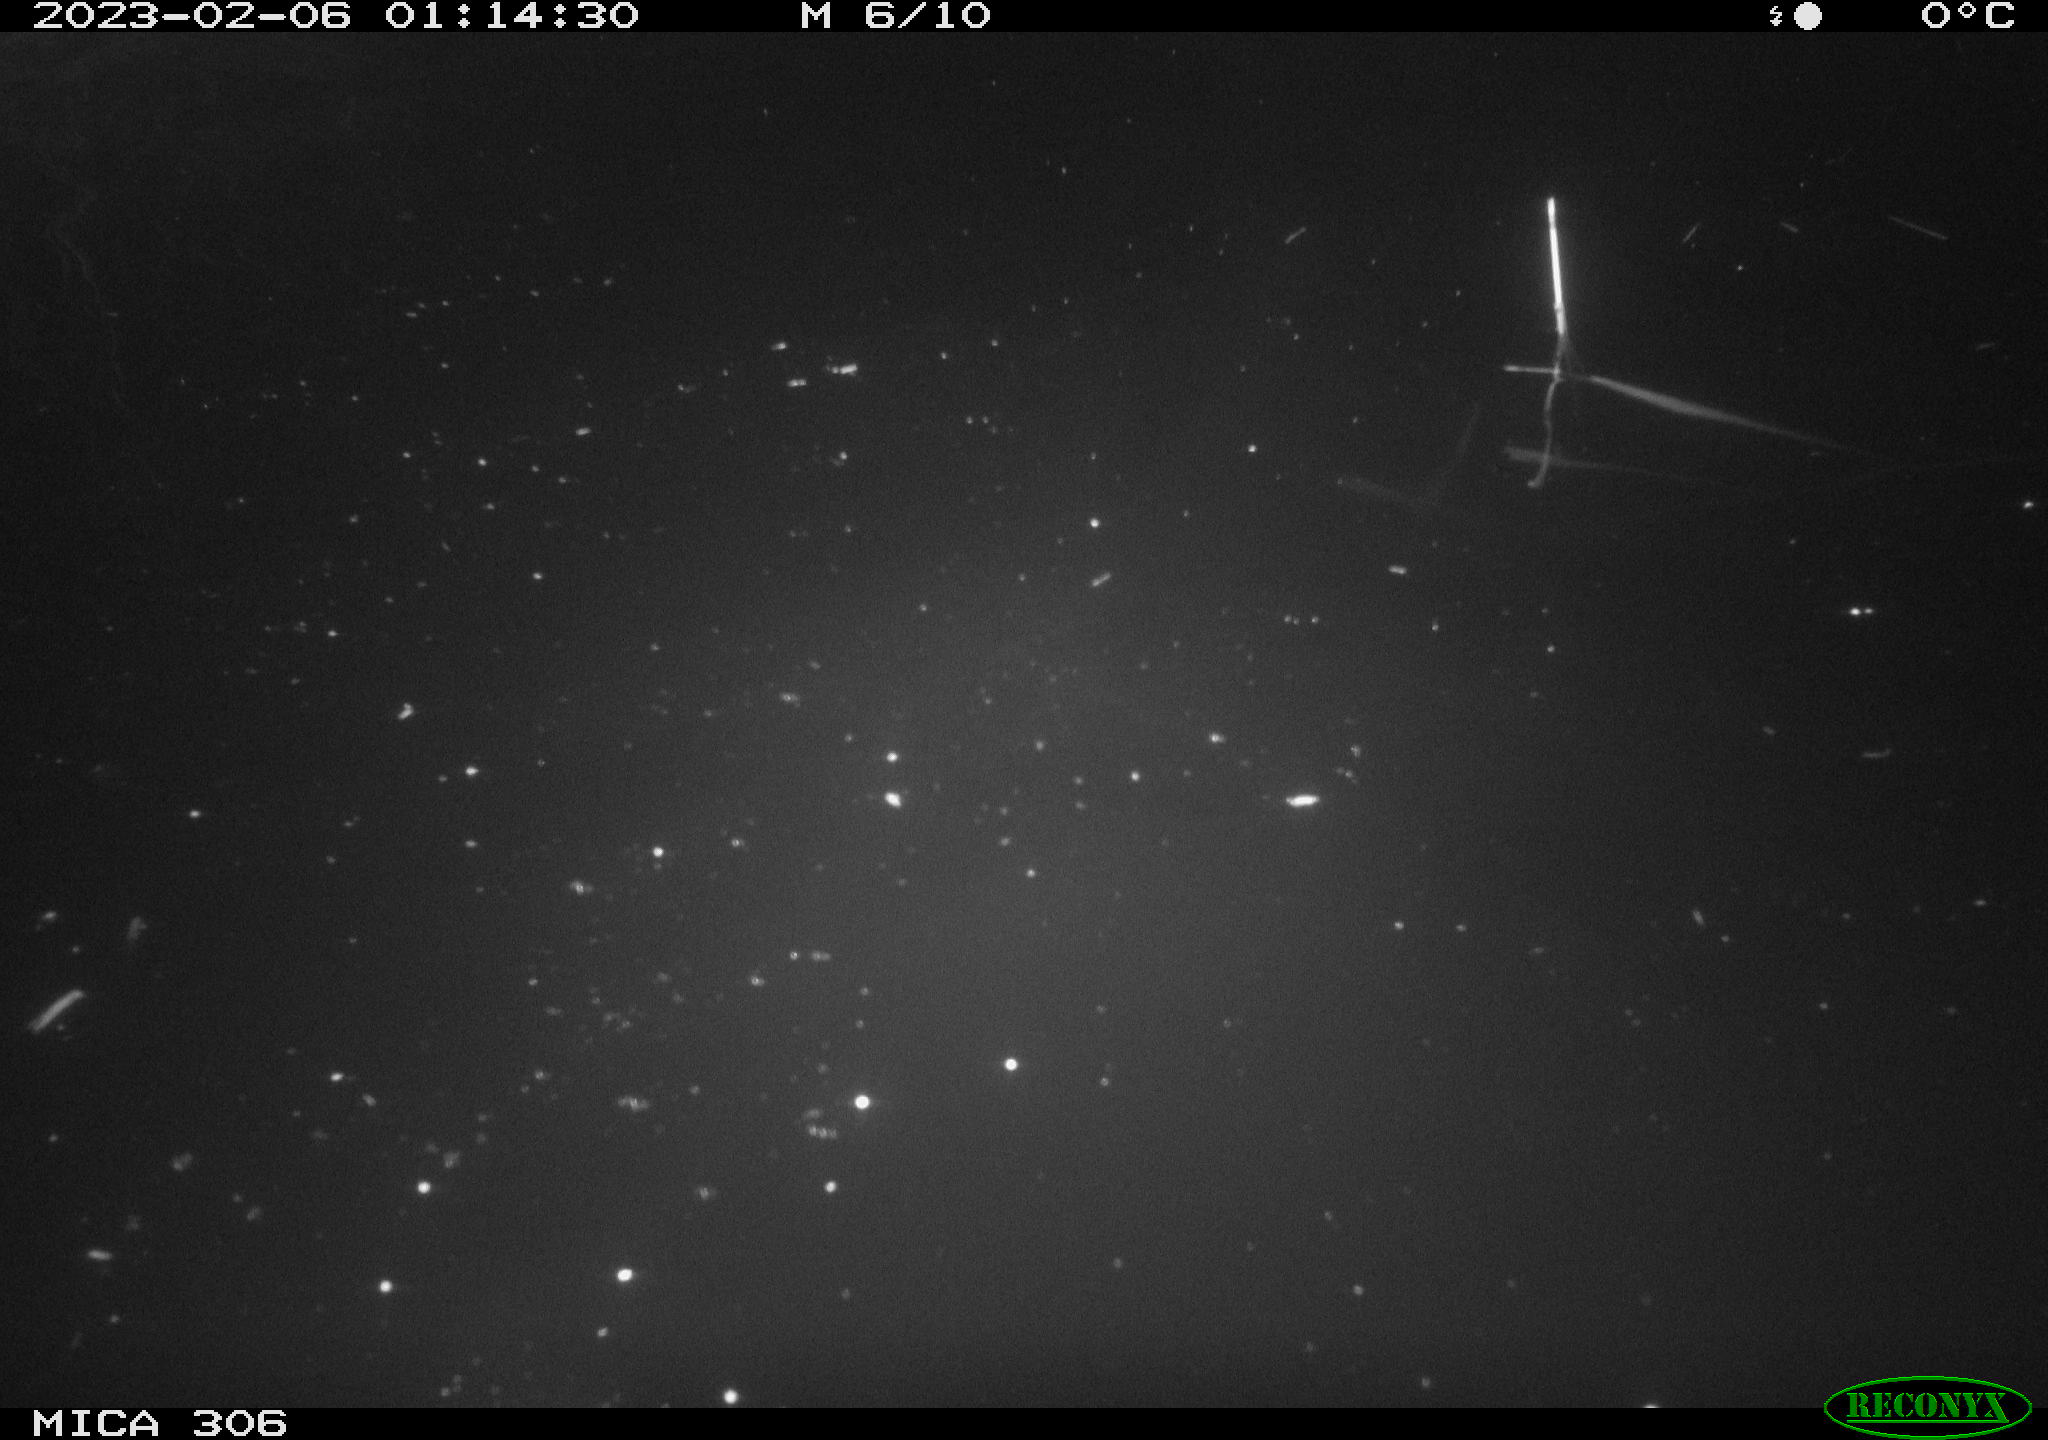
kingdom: Animalia
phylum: Chordata
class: Mammalia
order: Rodentia
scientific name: Rodentia
